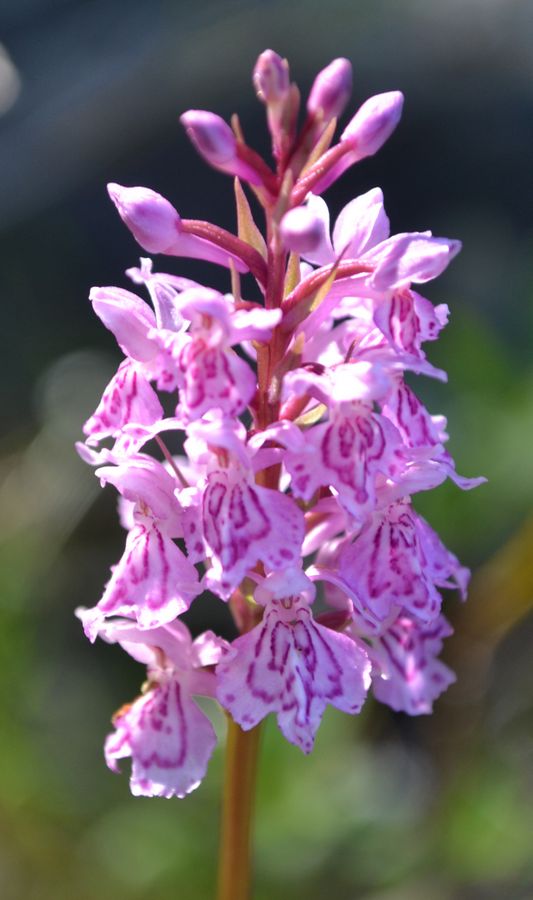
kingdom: Plantae
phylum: Tracheophyta
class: Liliopsida
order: Asparagales
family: Orchidaceae
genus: Dactylorhiza
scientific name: Dactylorhiza maculata
